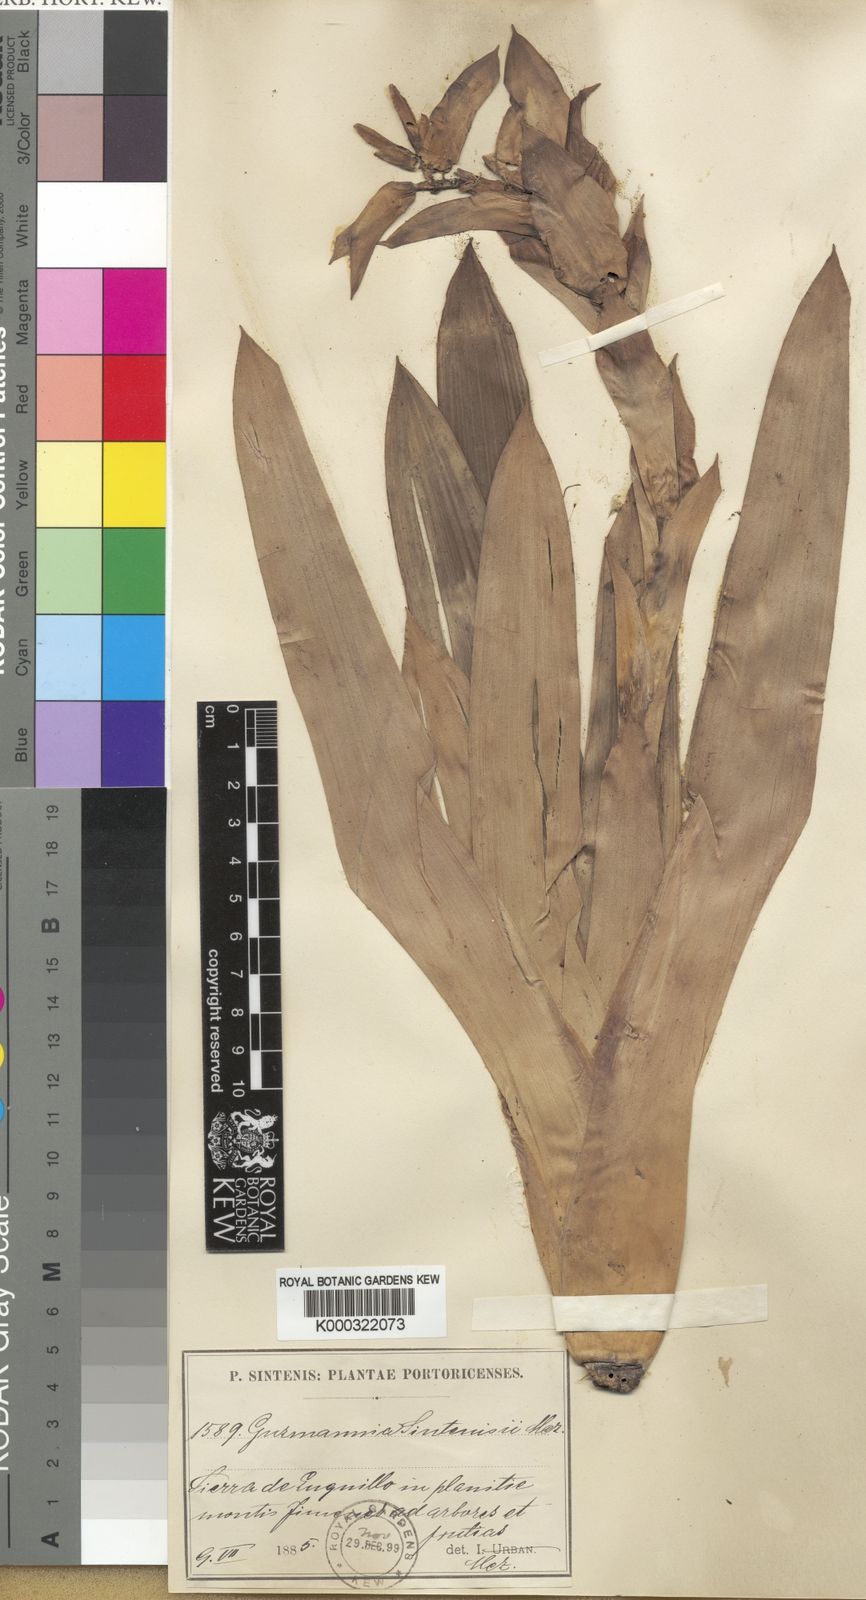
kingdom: Plantae
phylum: Tracheophyta
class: Liliopsida
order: Poales
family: Bromeliaceae
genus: Werauhia
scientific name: Werauhia sintenisii
